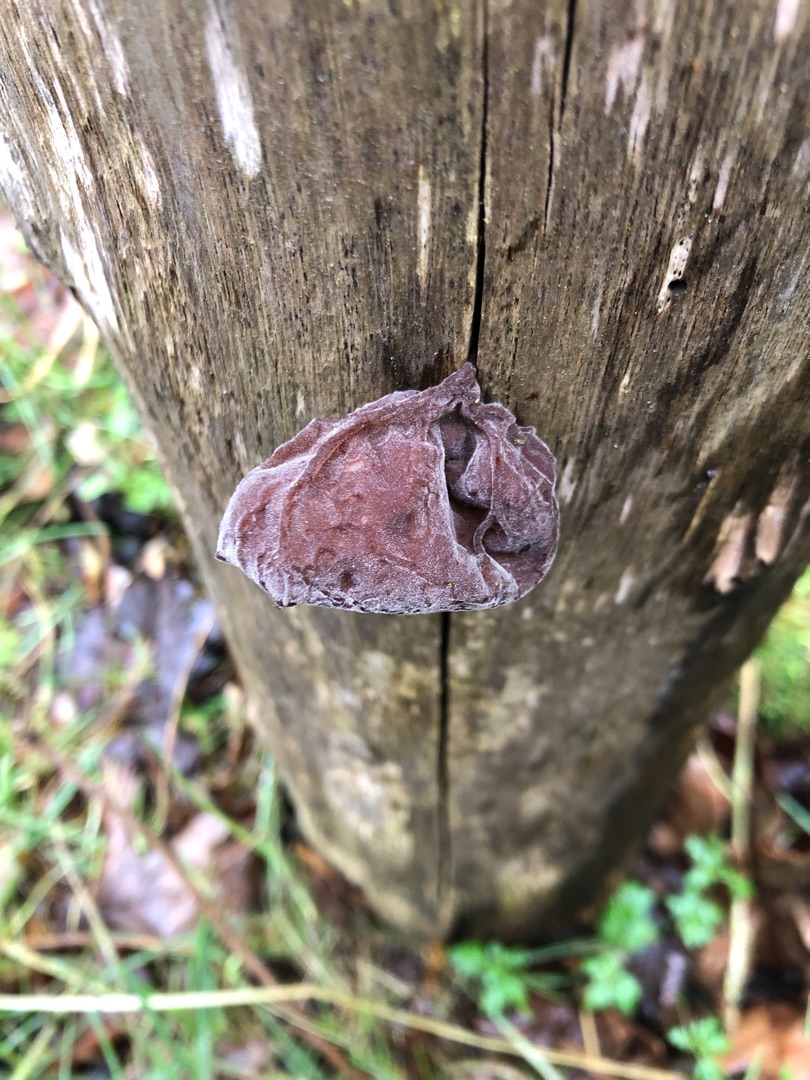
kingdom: Fungi
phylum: Basidiomycota
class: Agaricomycetes
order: Auriculariales
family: Auriculariaceae
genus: Auricularia
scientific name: Auricularia auricula-judae
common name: Almindelig judasøre
